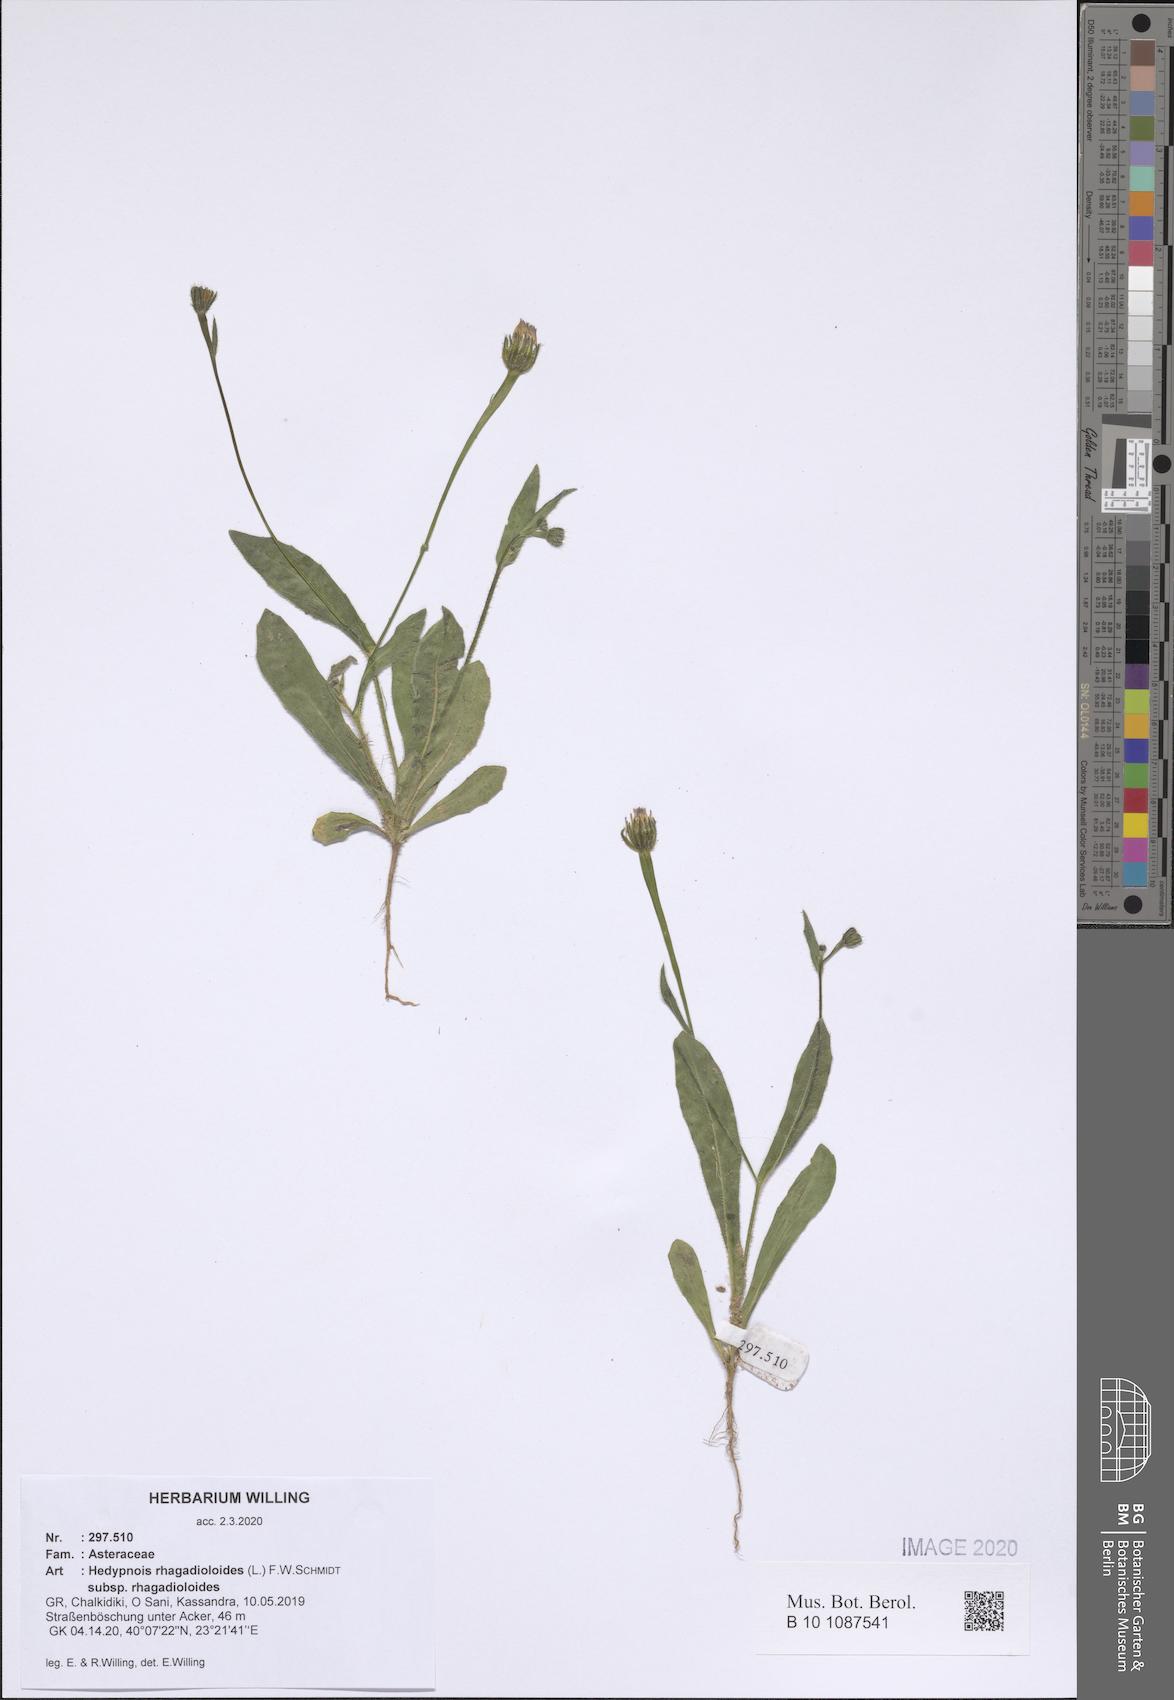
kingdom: Plantae
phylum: Tracheophyta
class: Magnoliopsida
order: Asterales
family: Asteraceae
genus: Hedypnois
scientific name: Hedypnois rhagadioloides
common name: Cretan weed
